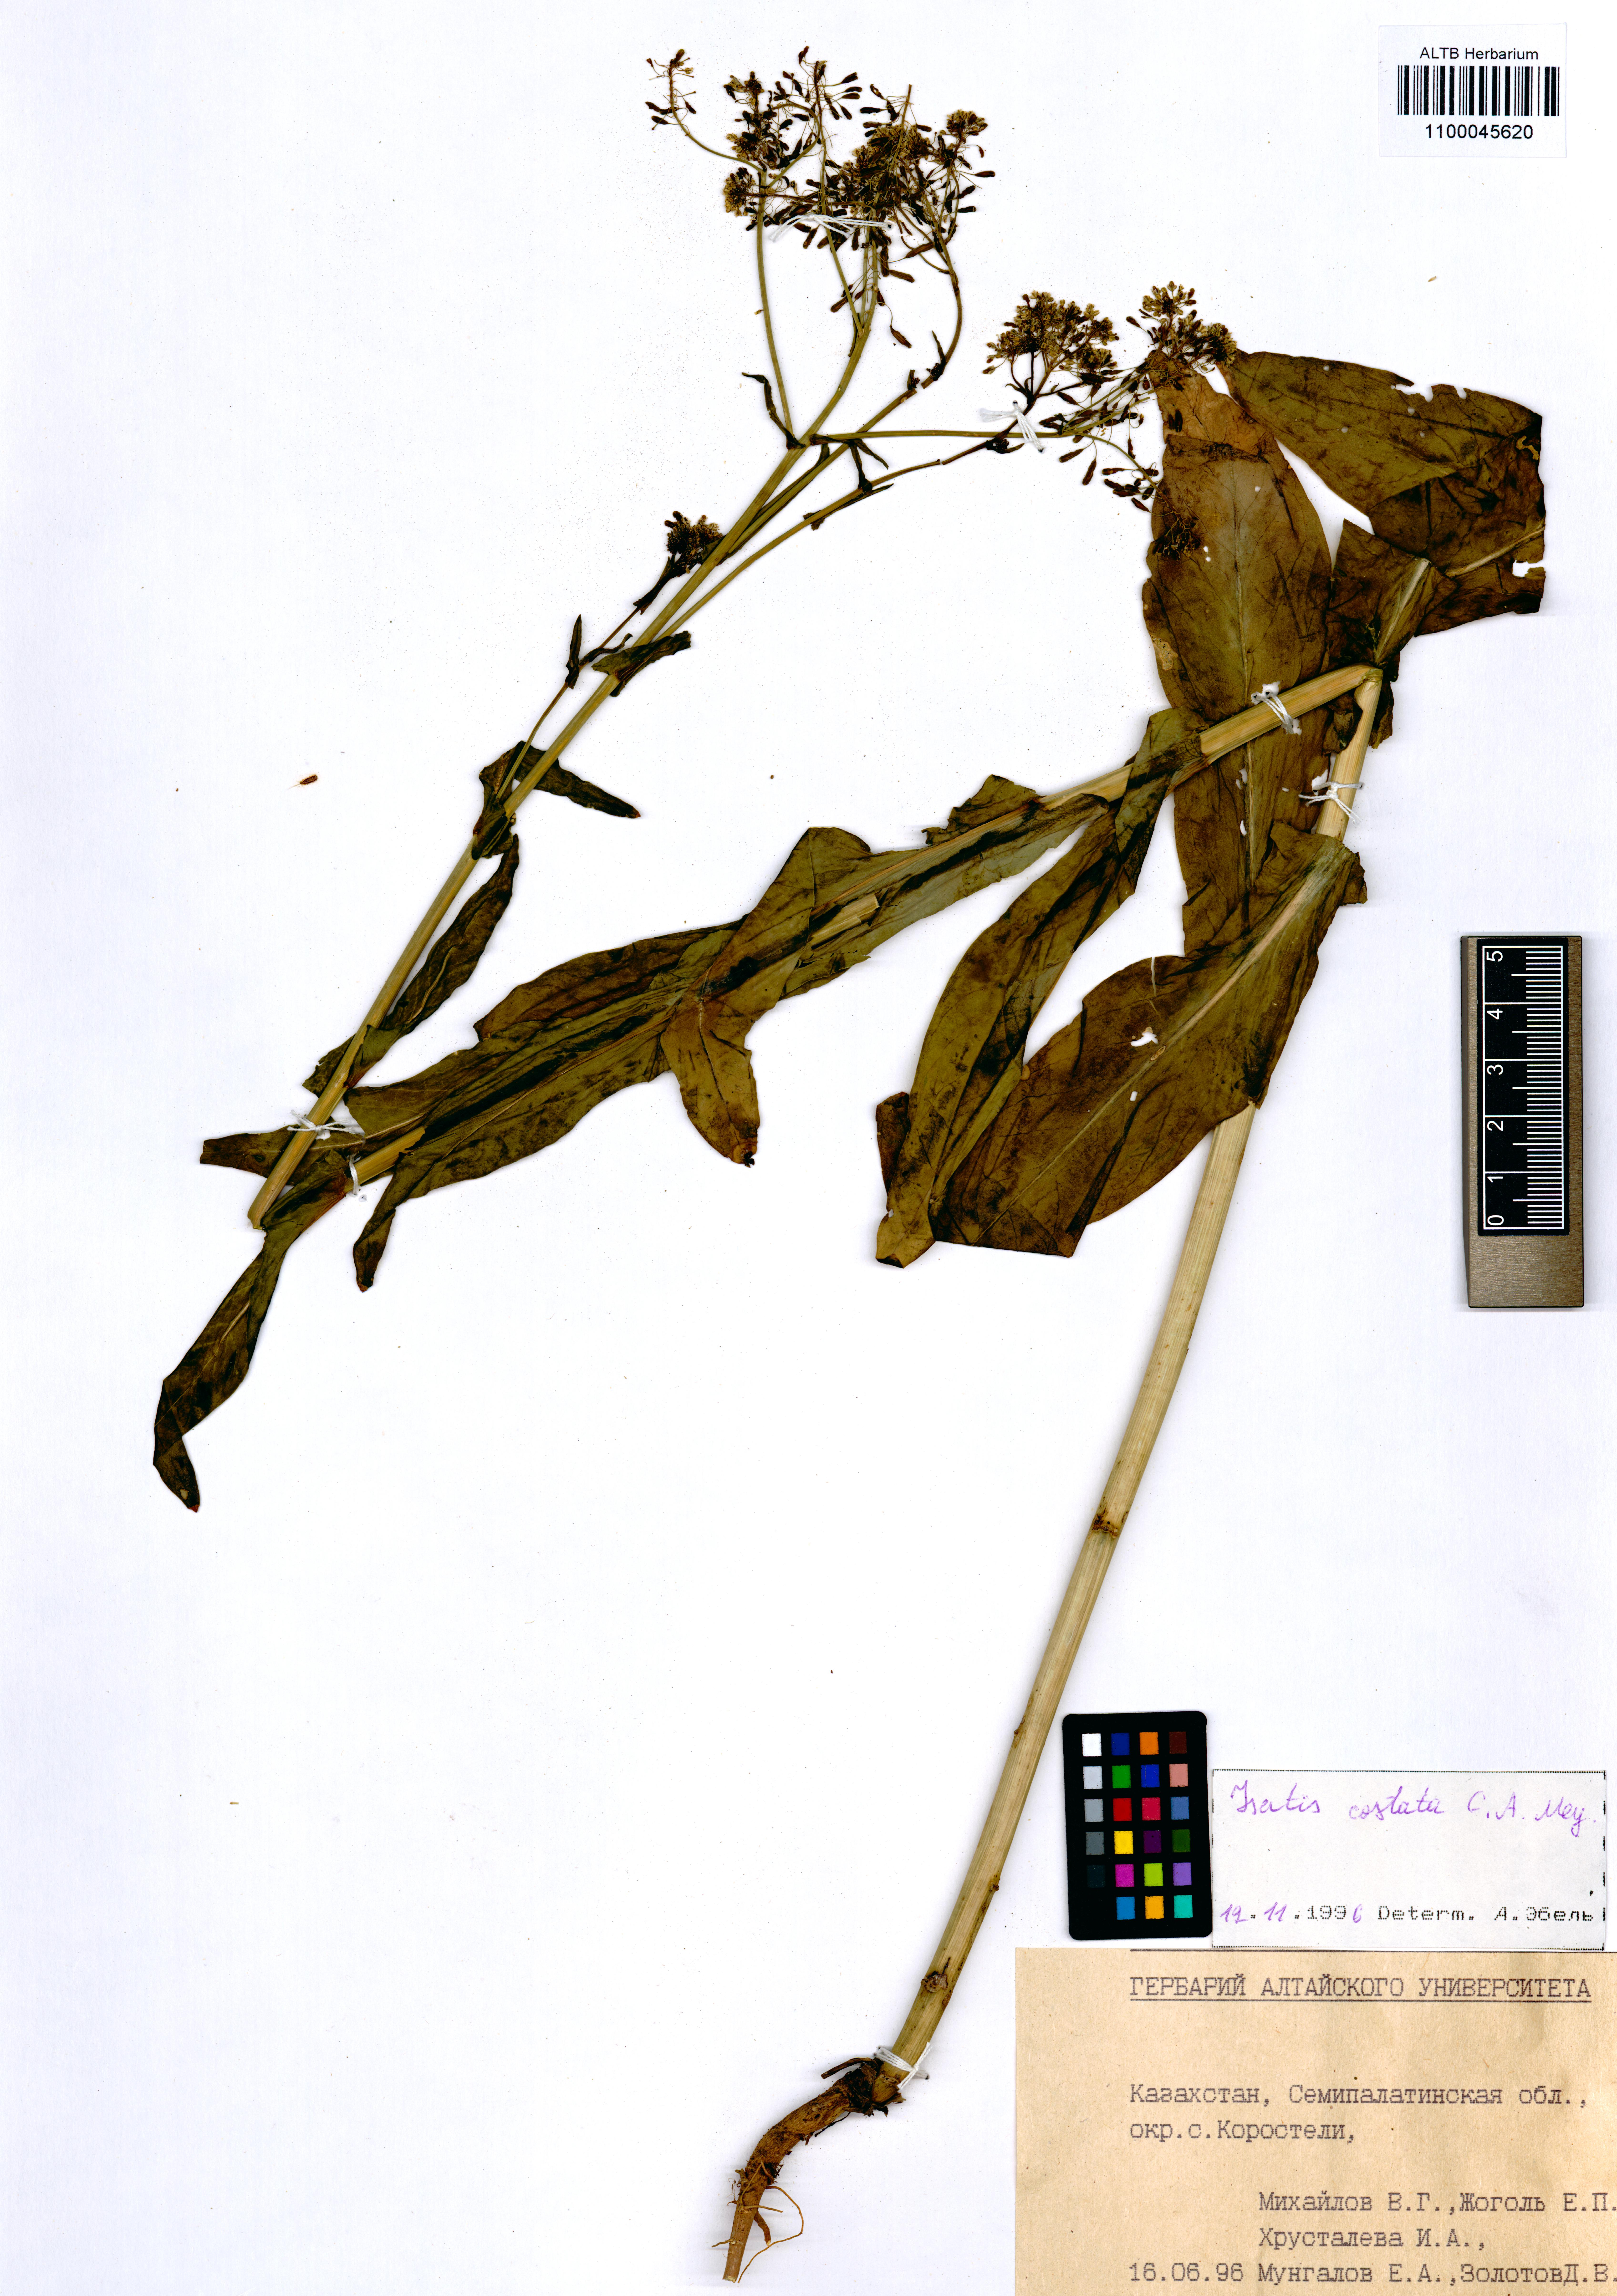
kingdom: Plantae
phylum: Tracheophyta
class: Magnoliopsida
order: Brassicales
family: Brassicaceae
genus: Isatis
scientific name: Isatis costata
